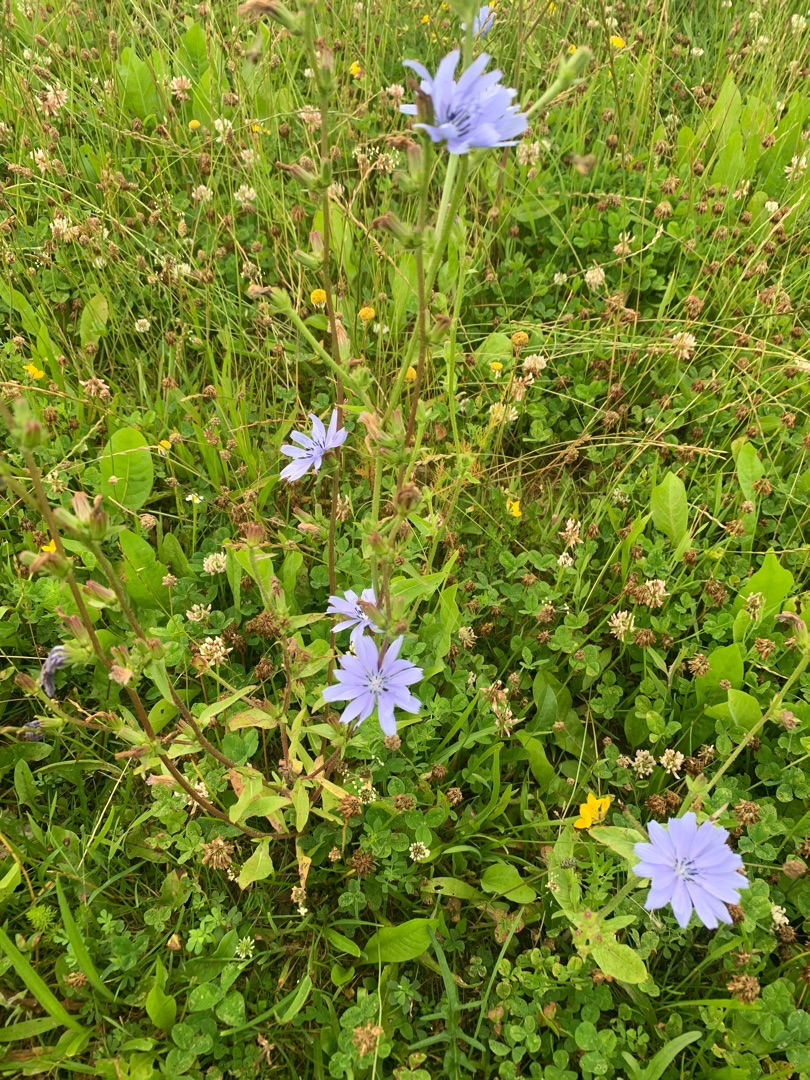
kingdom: Plantae
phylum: Tracheophyta
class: Magnoliopsida
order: Asterales
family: Asteraceae
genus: Cichorium
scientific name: Cichorium intybus
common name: Cikorie
